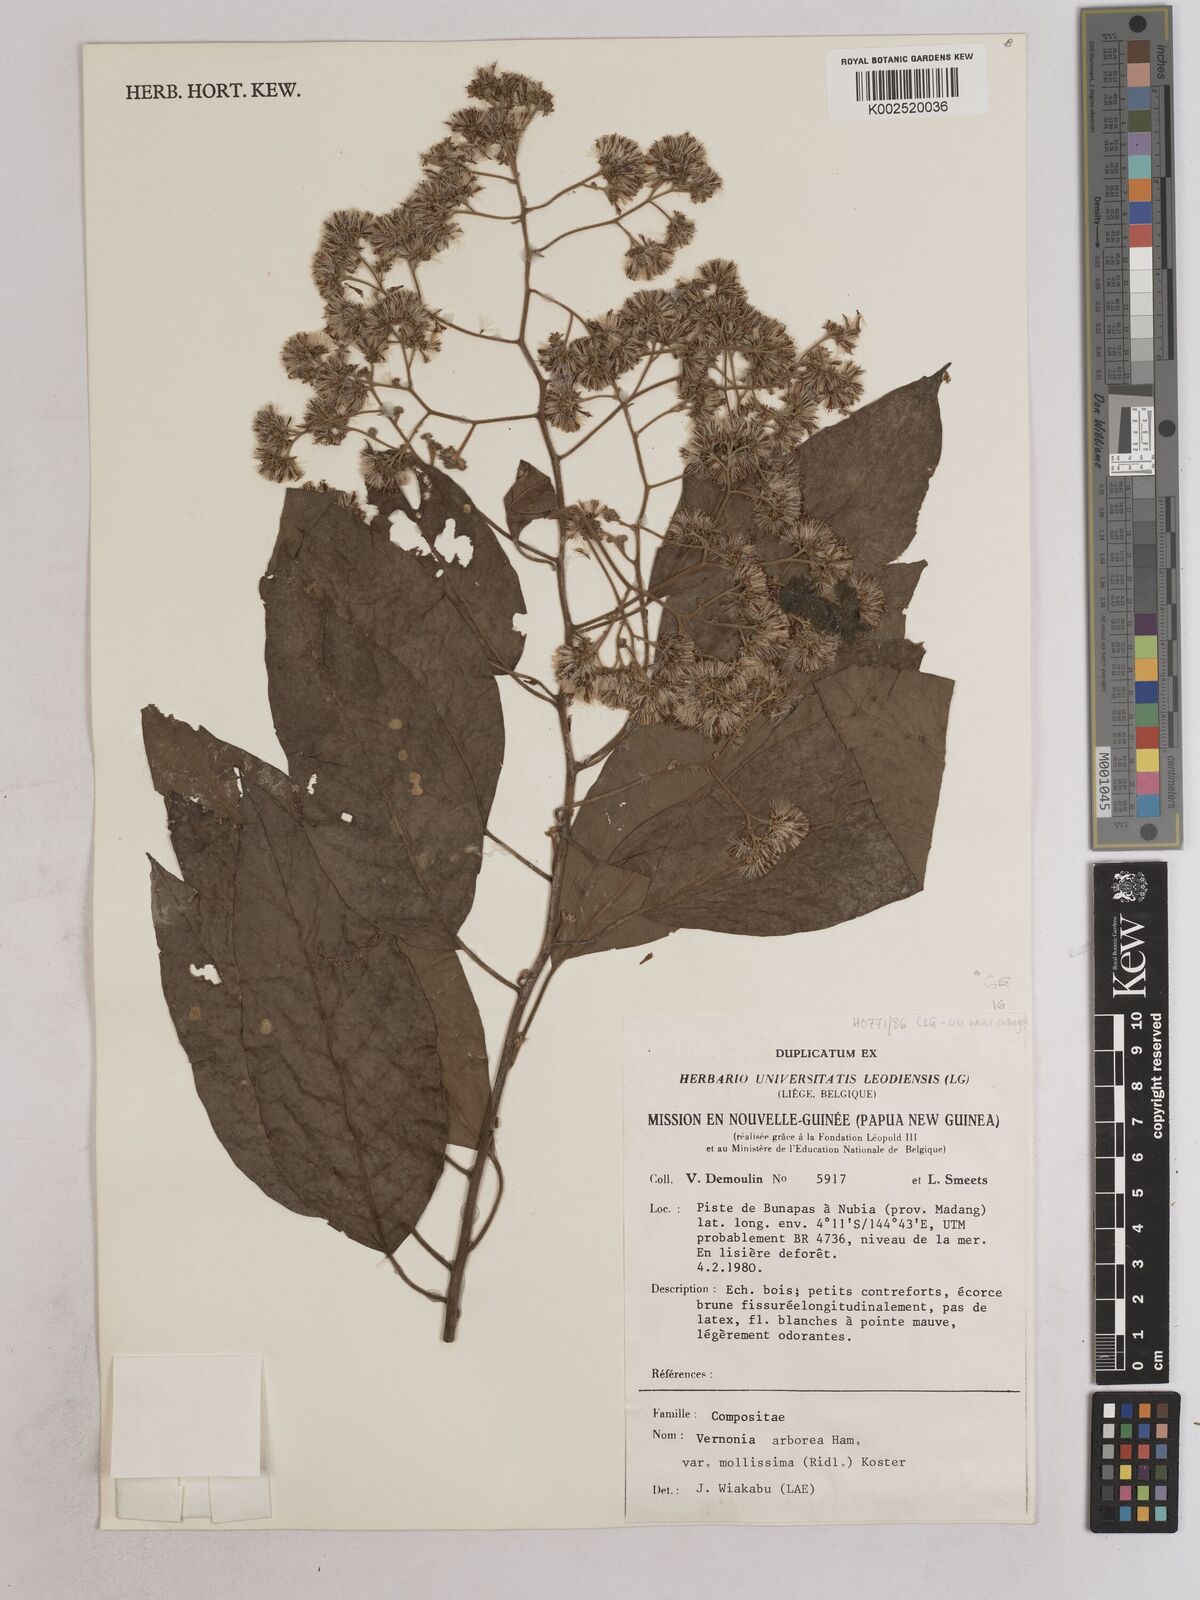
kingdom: Plantae
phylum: Tracheophyta
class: Magnoliopsida
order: Asterales
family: Asteraceae
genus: Strobocalyx
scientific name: Strobocalyx arborea
